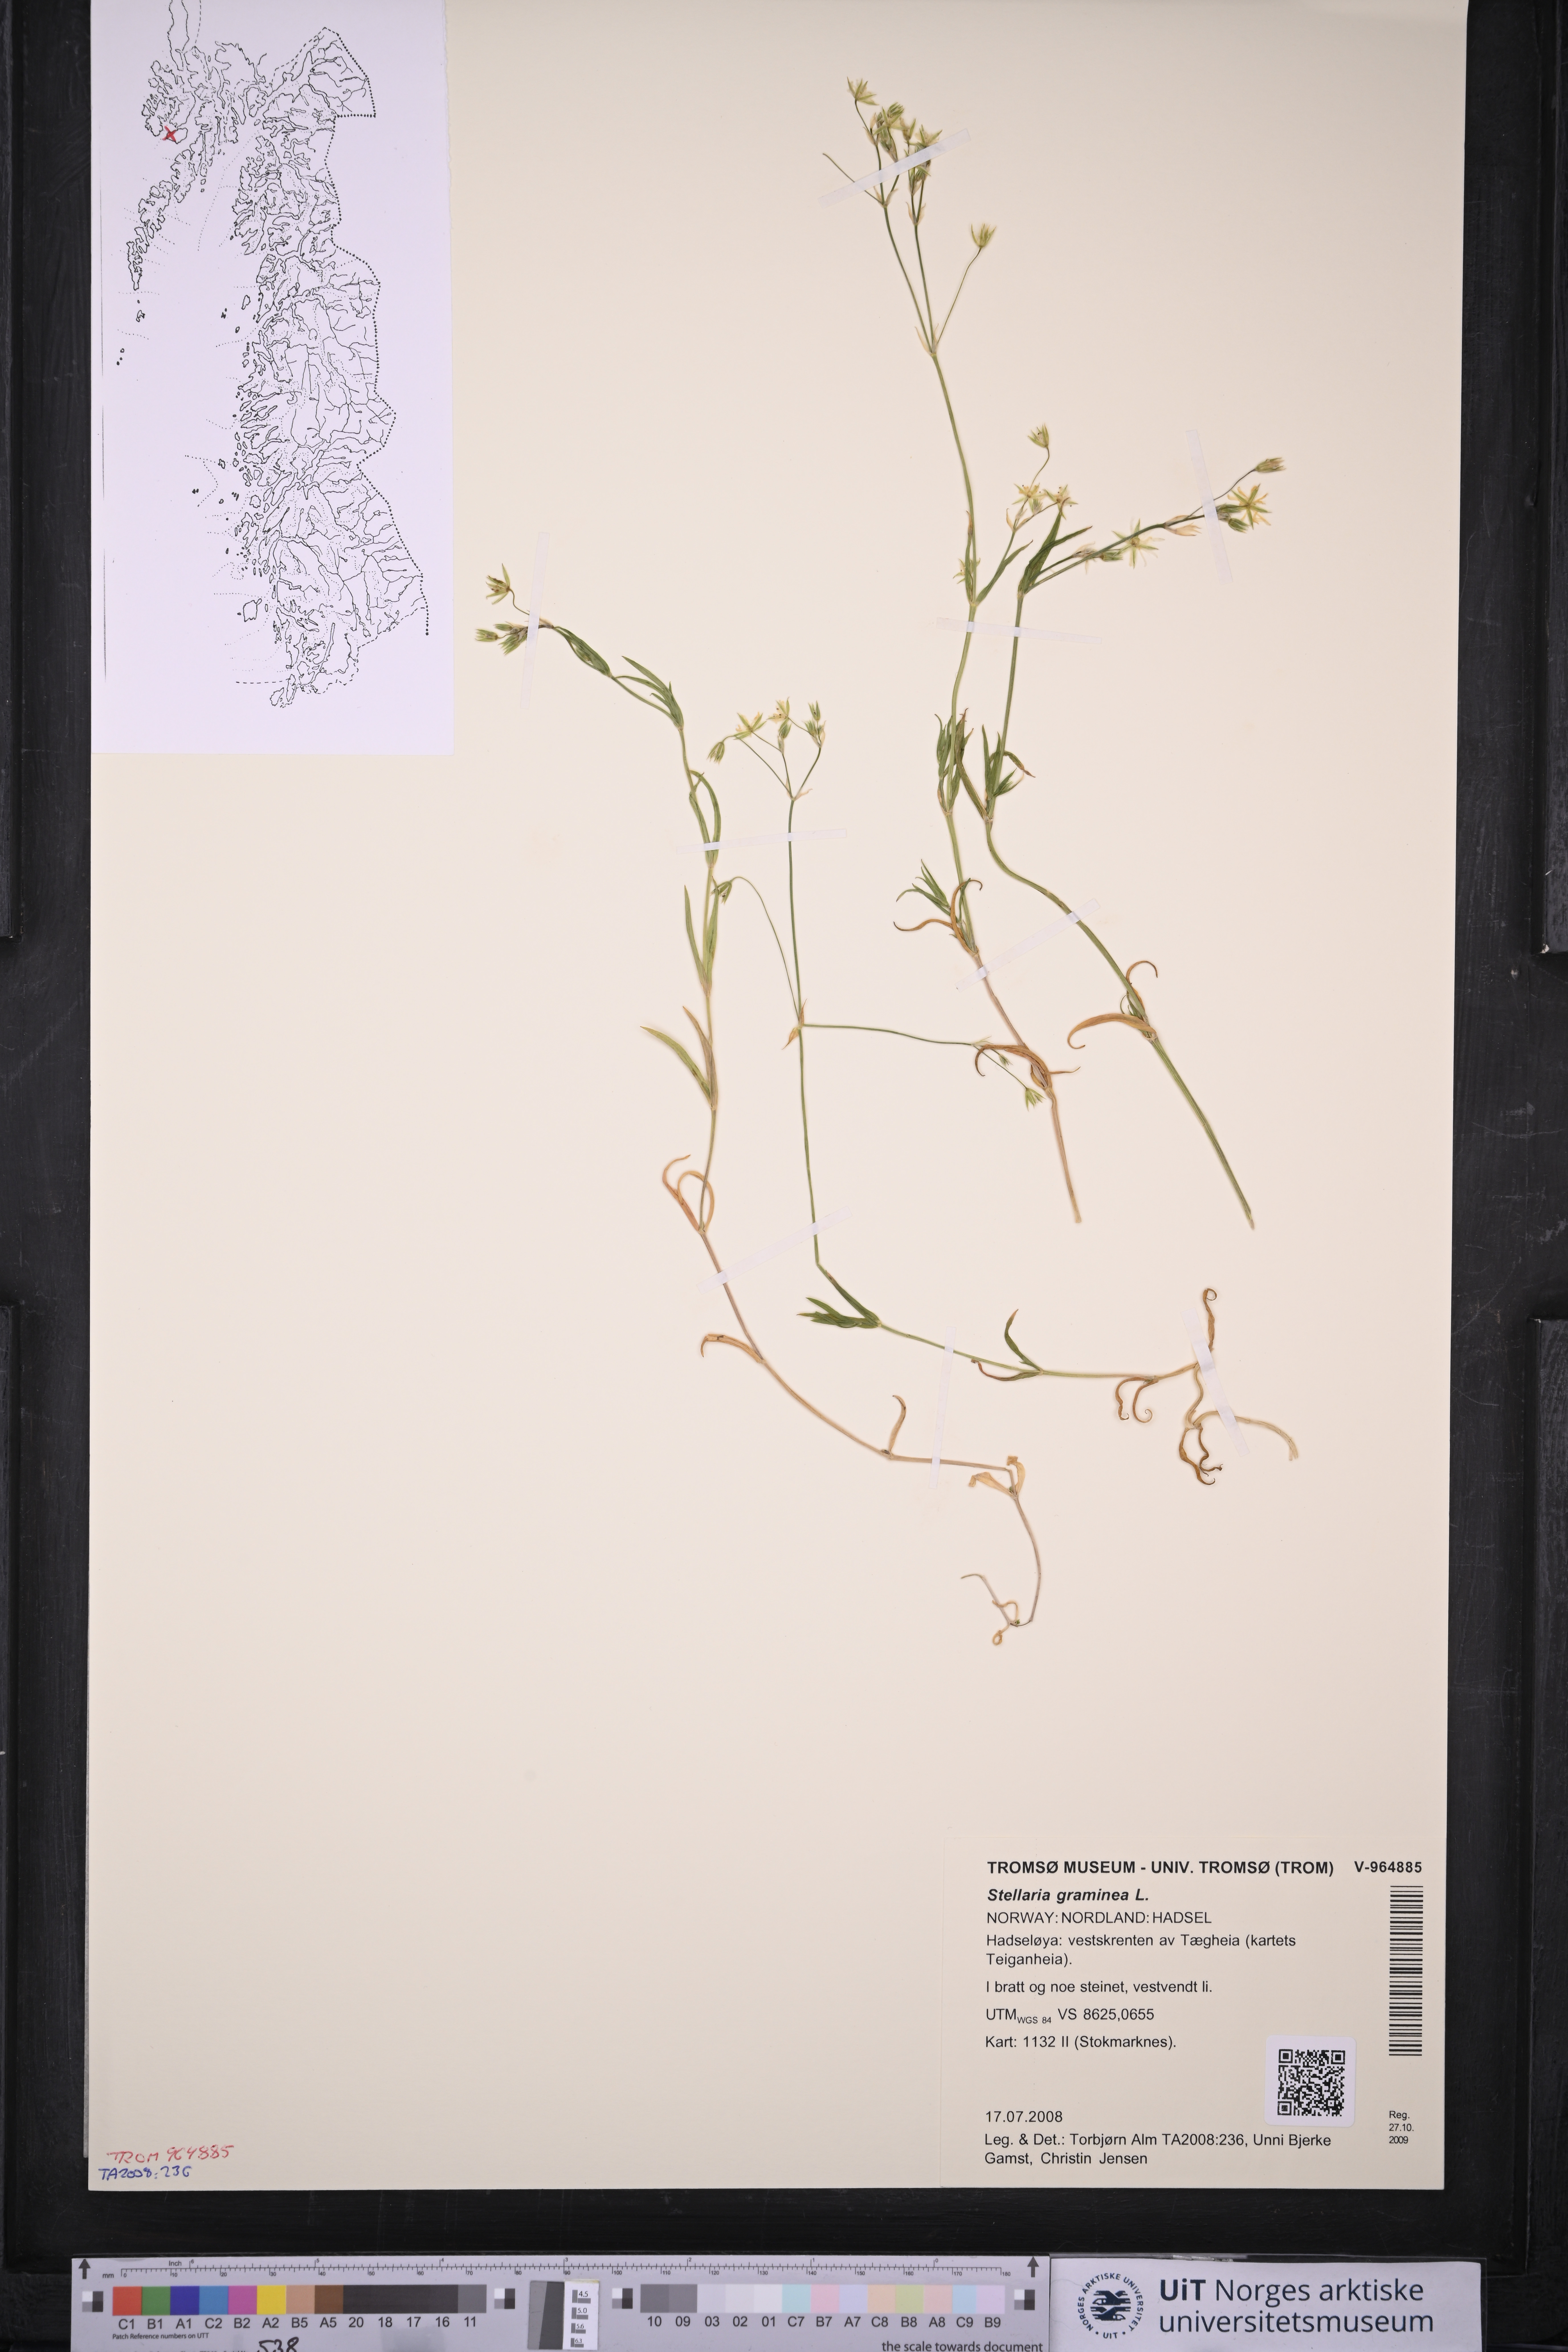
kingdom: Plantae
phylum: Tracheophyta
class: Magnoliopsida
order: Caryophyllales
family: Caryophyllaceae
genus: Stellaria
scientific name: Stellaria graminea
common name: Grass-like starwort
